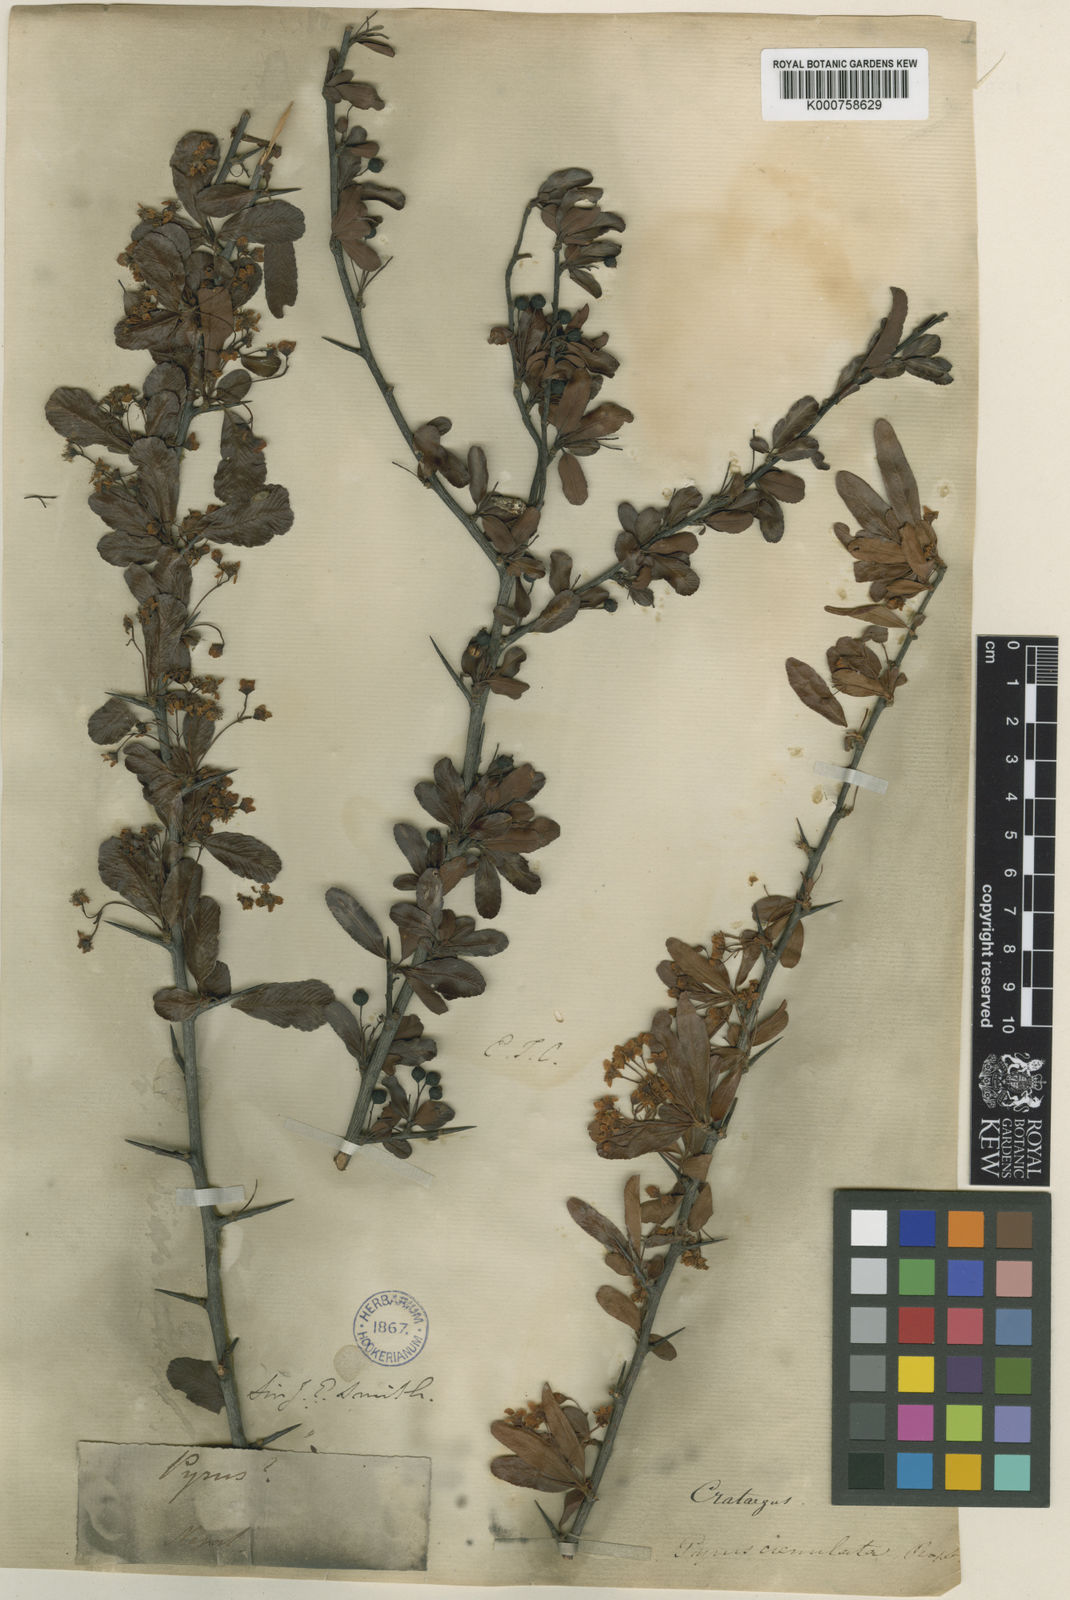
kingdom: Plantae
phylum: Tracheophyta
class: Magnoliopsida
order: Rosales
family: Rosaceae
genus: Pyracantha
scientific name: Pyracantha crenulata
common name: Nepalese firethorn
